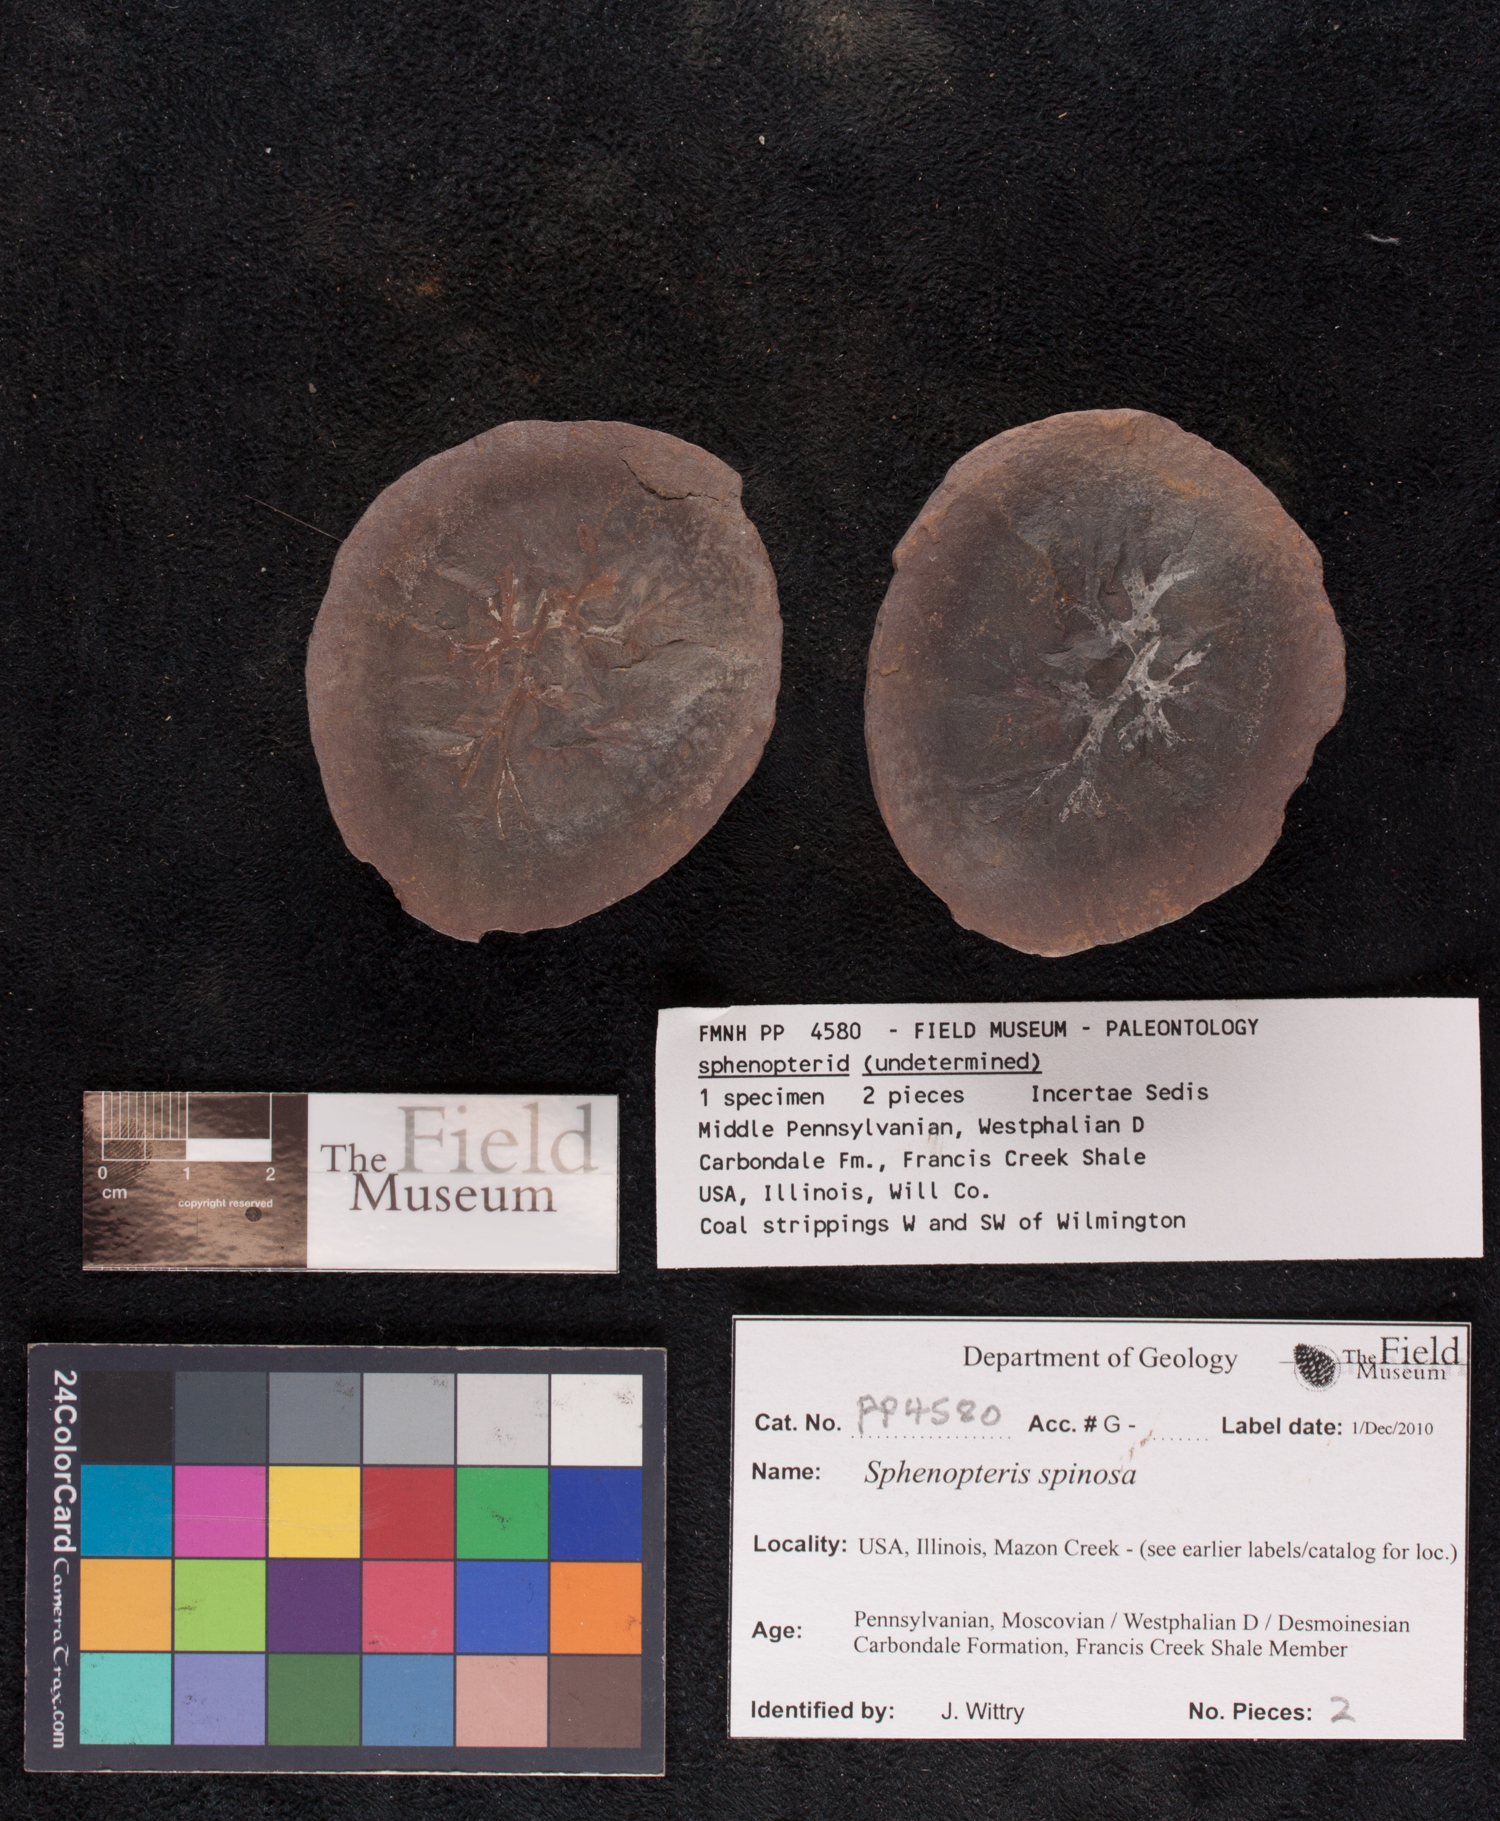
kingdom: Plantae
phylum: Tracheophyta
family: Lyginopteridaceae
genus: Sphenopteris
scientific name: Sphenopteris
